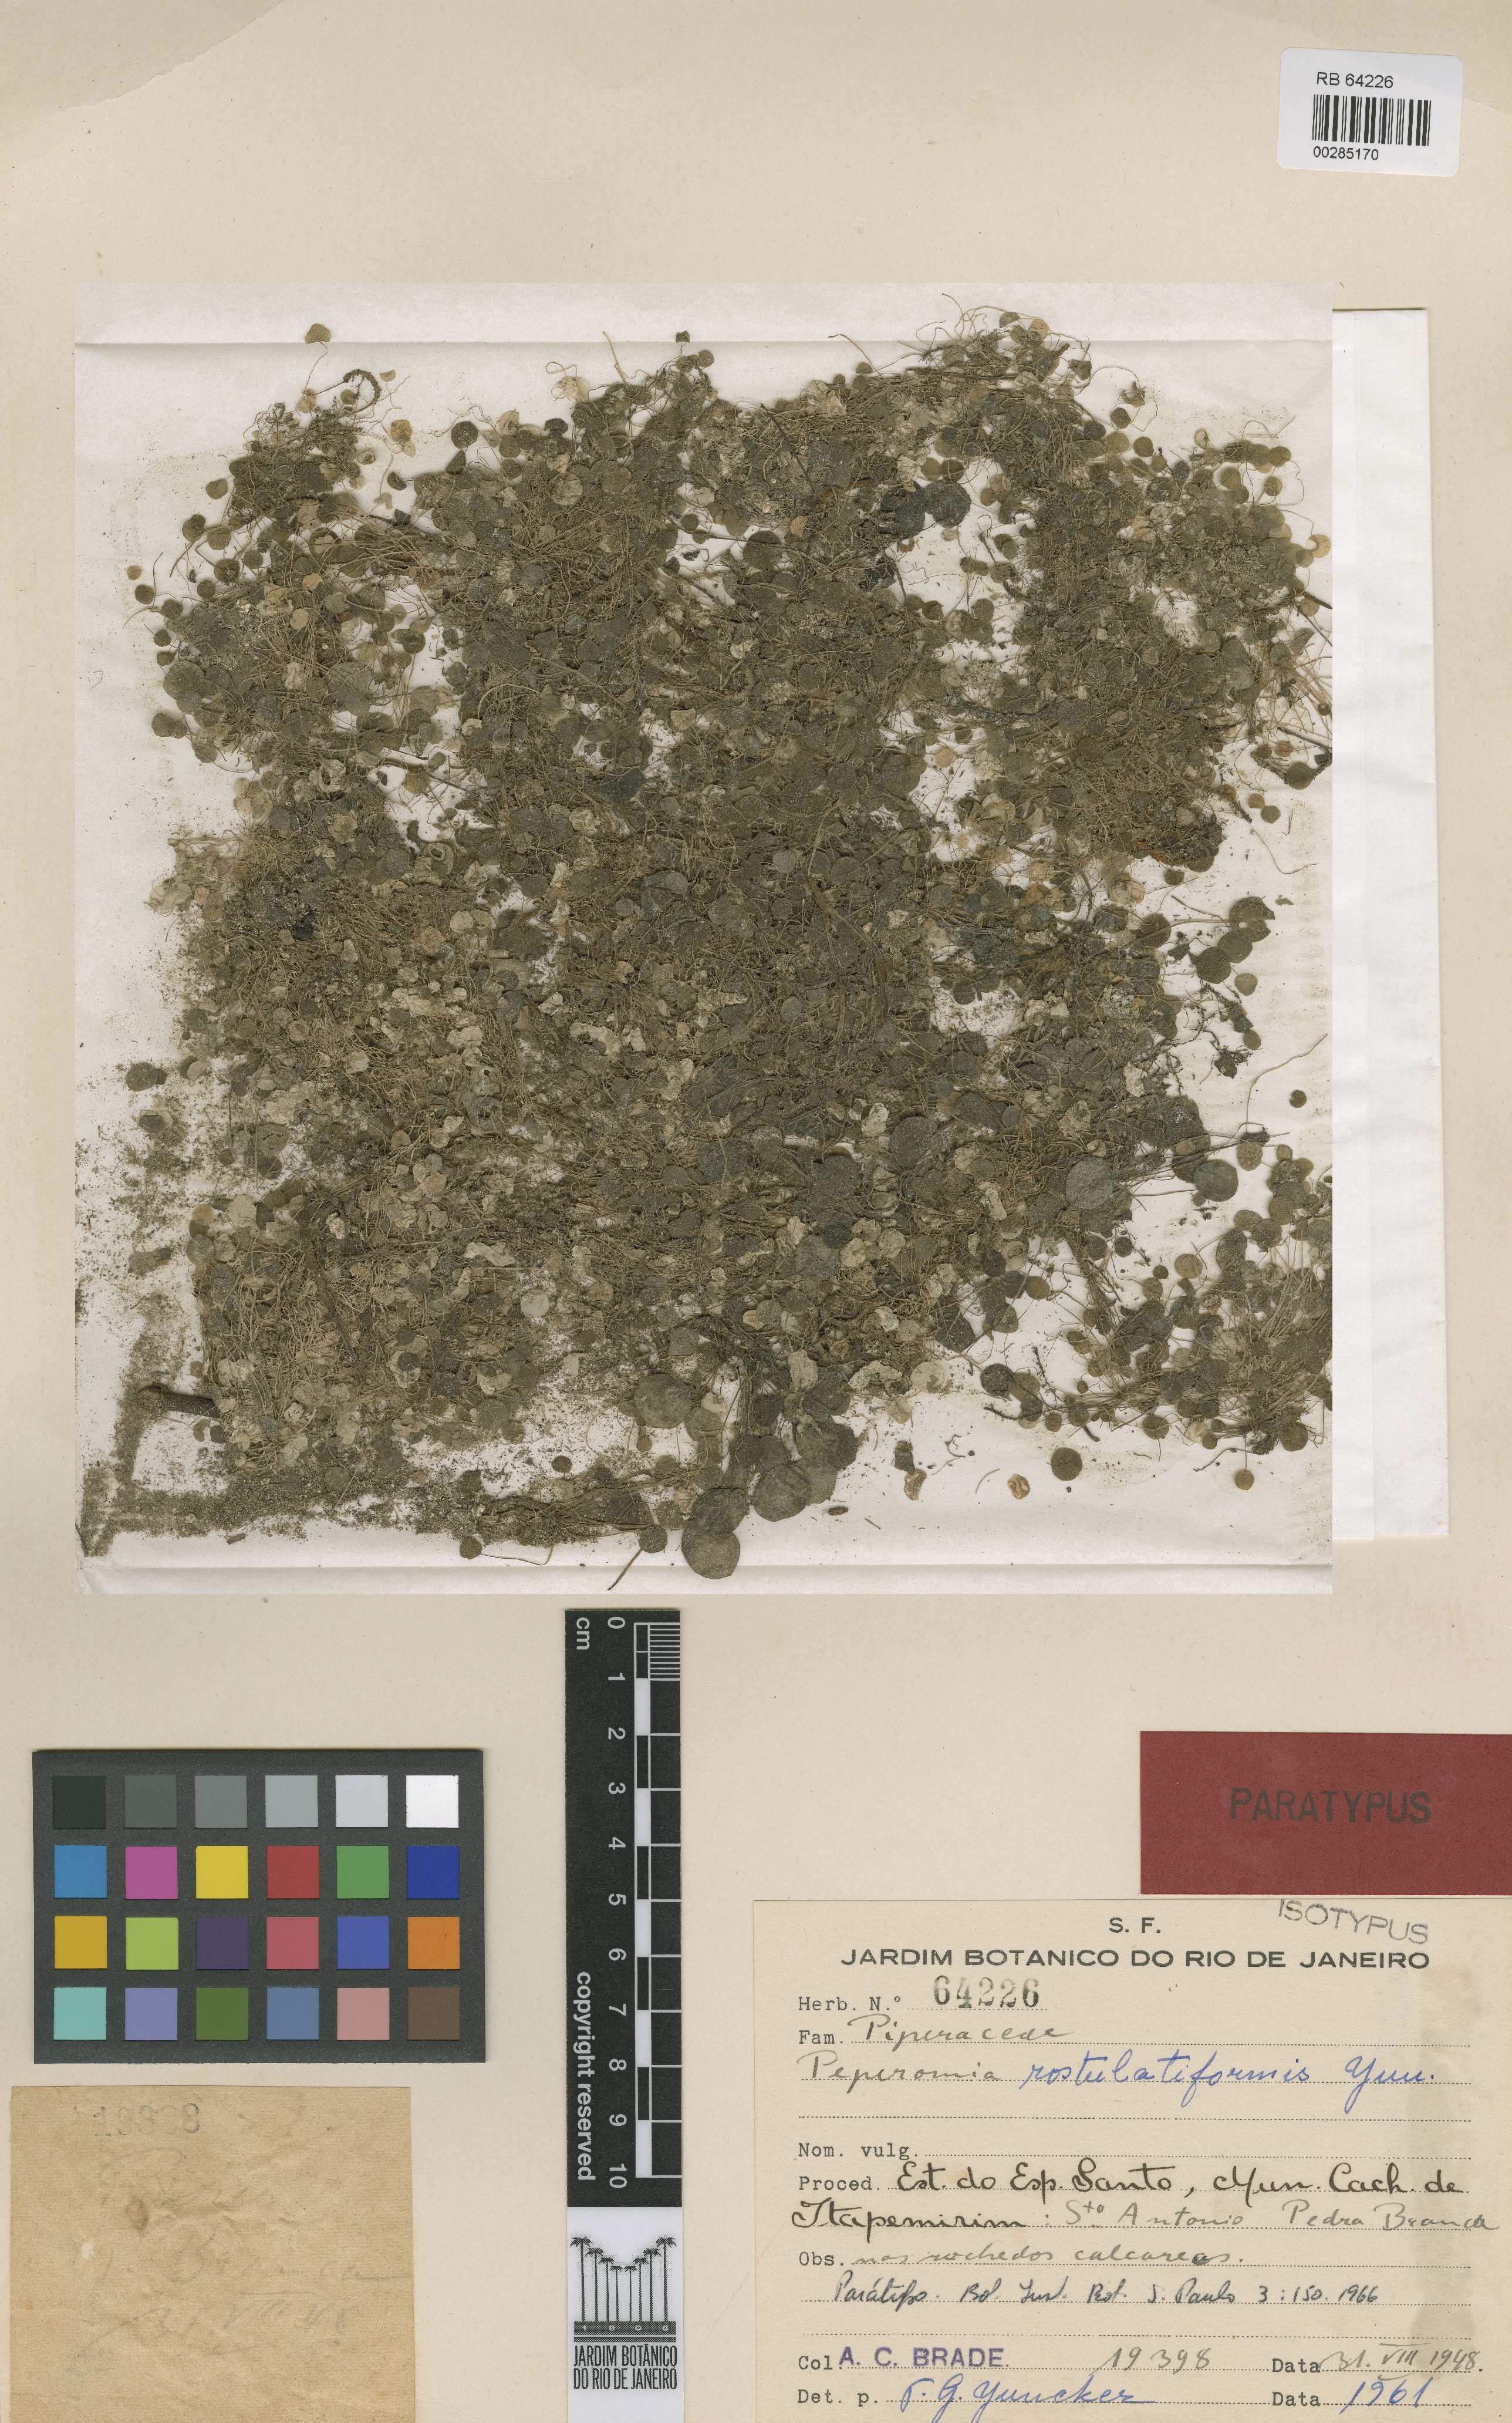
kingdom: Plantae
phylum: Tracheophyta
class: Magnoliopsida
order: Piperales
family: Piperaceae
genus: Peperomia
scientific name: Peperomia rostulatiformis
